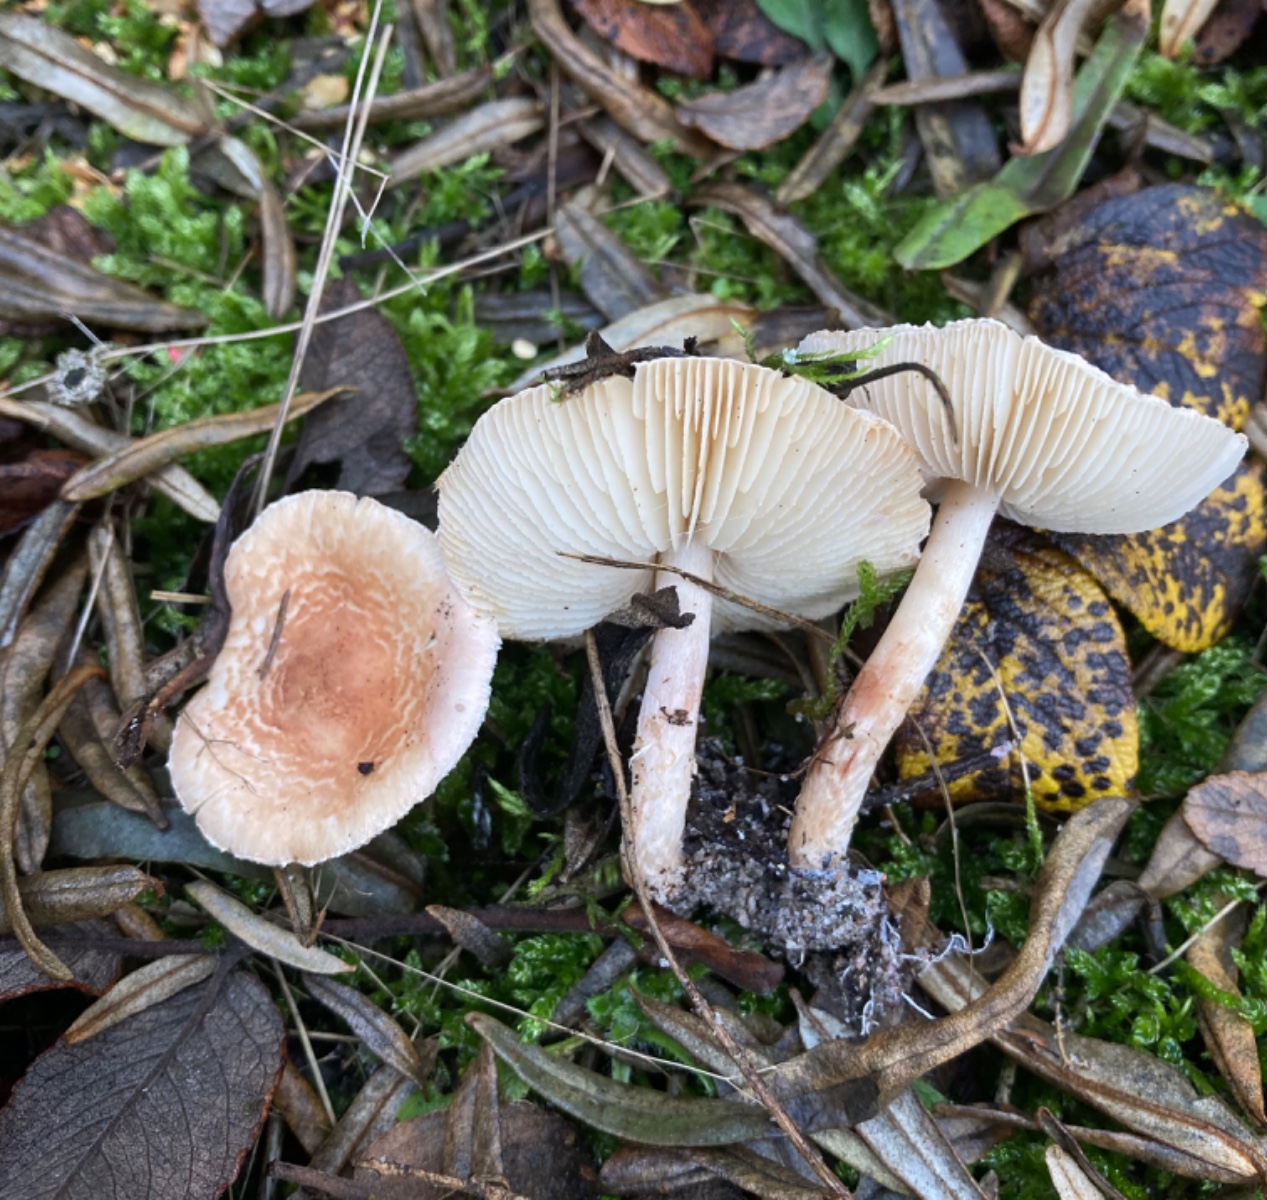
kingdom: Fungi
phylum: Basidiomycota
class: Agaricomycetes
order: Agaricales
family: Agaricaceae
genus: Lepiota
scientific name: Lepiota subincarnata
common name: kødfarvet parasolhat
